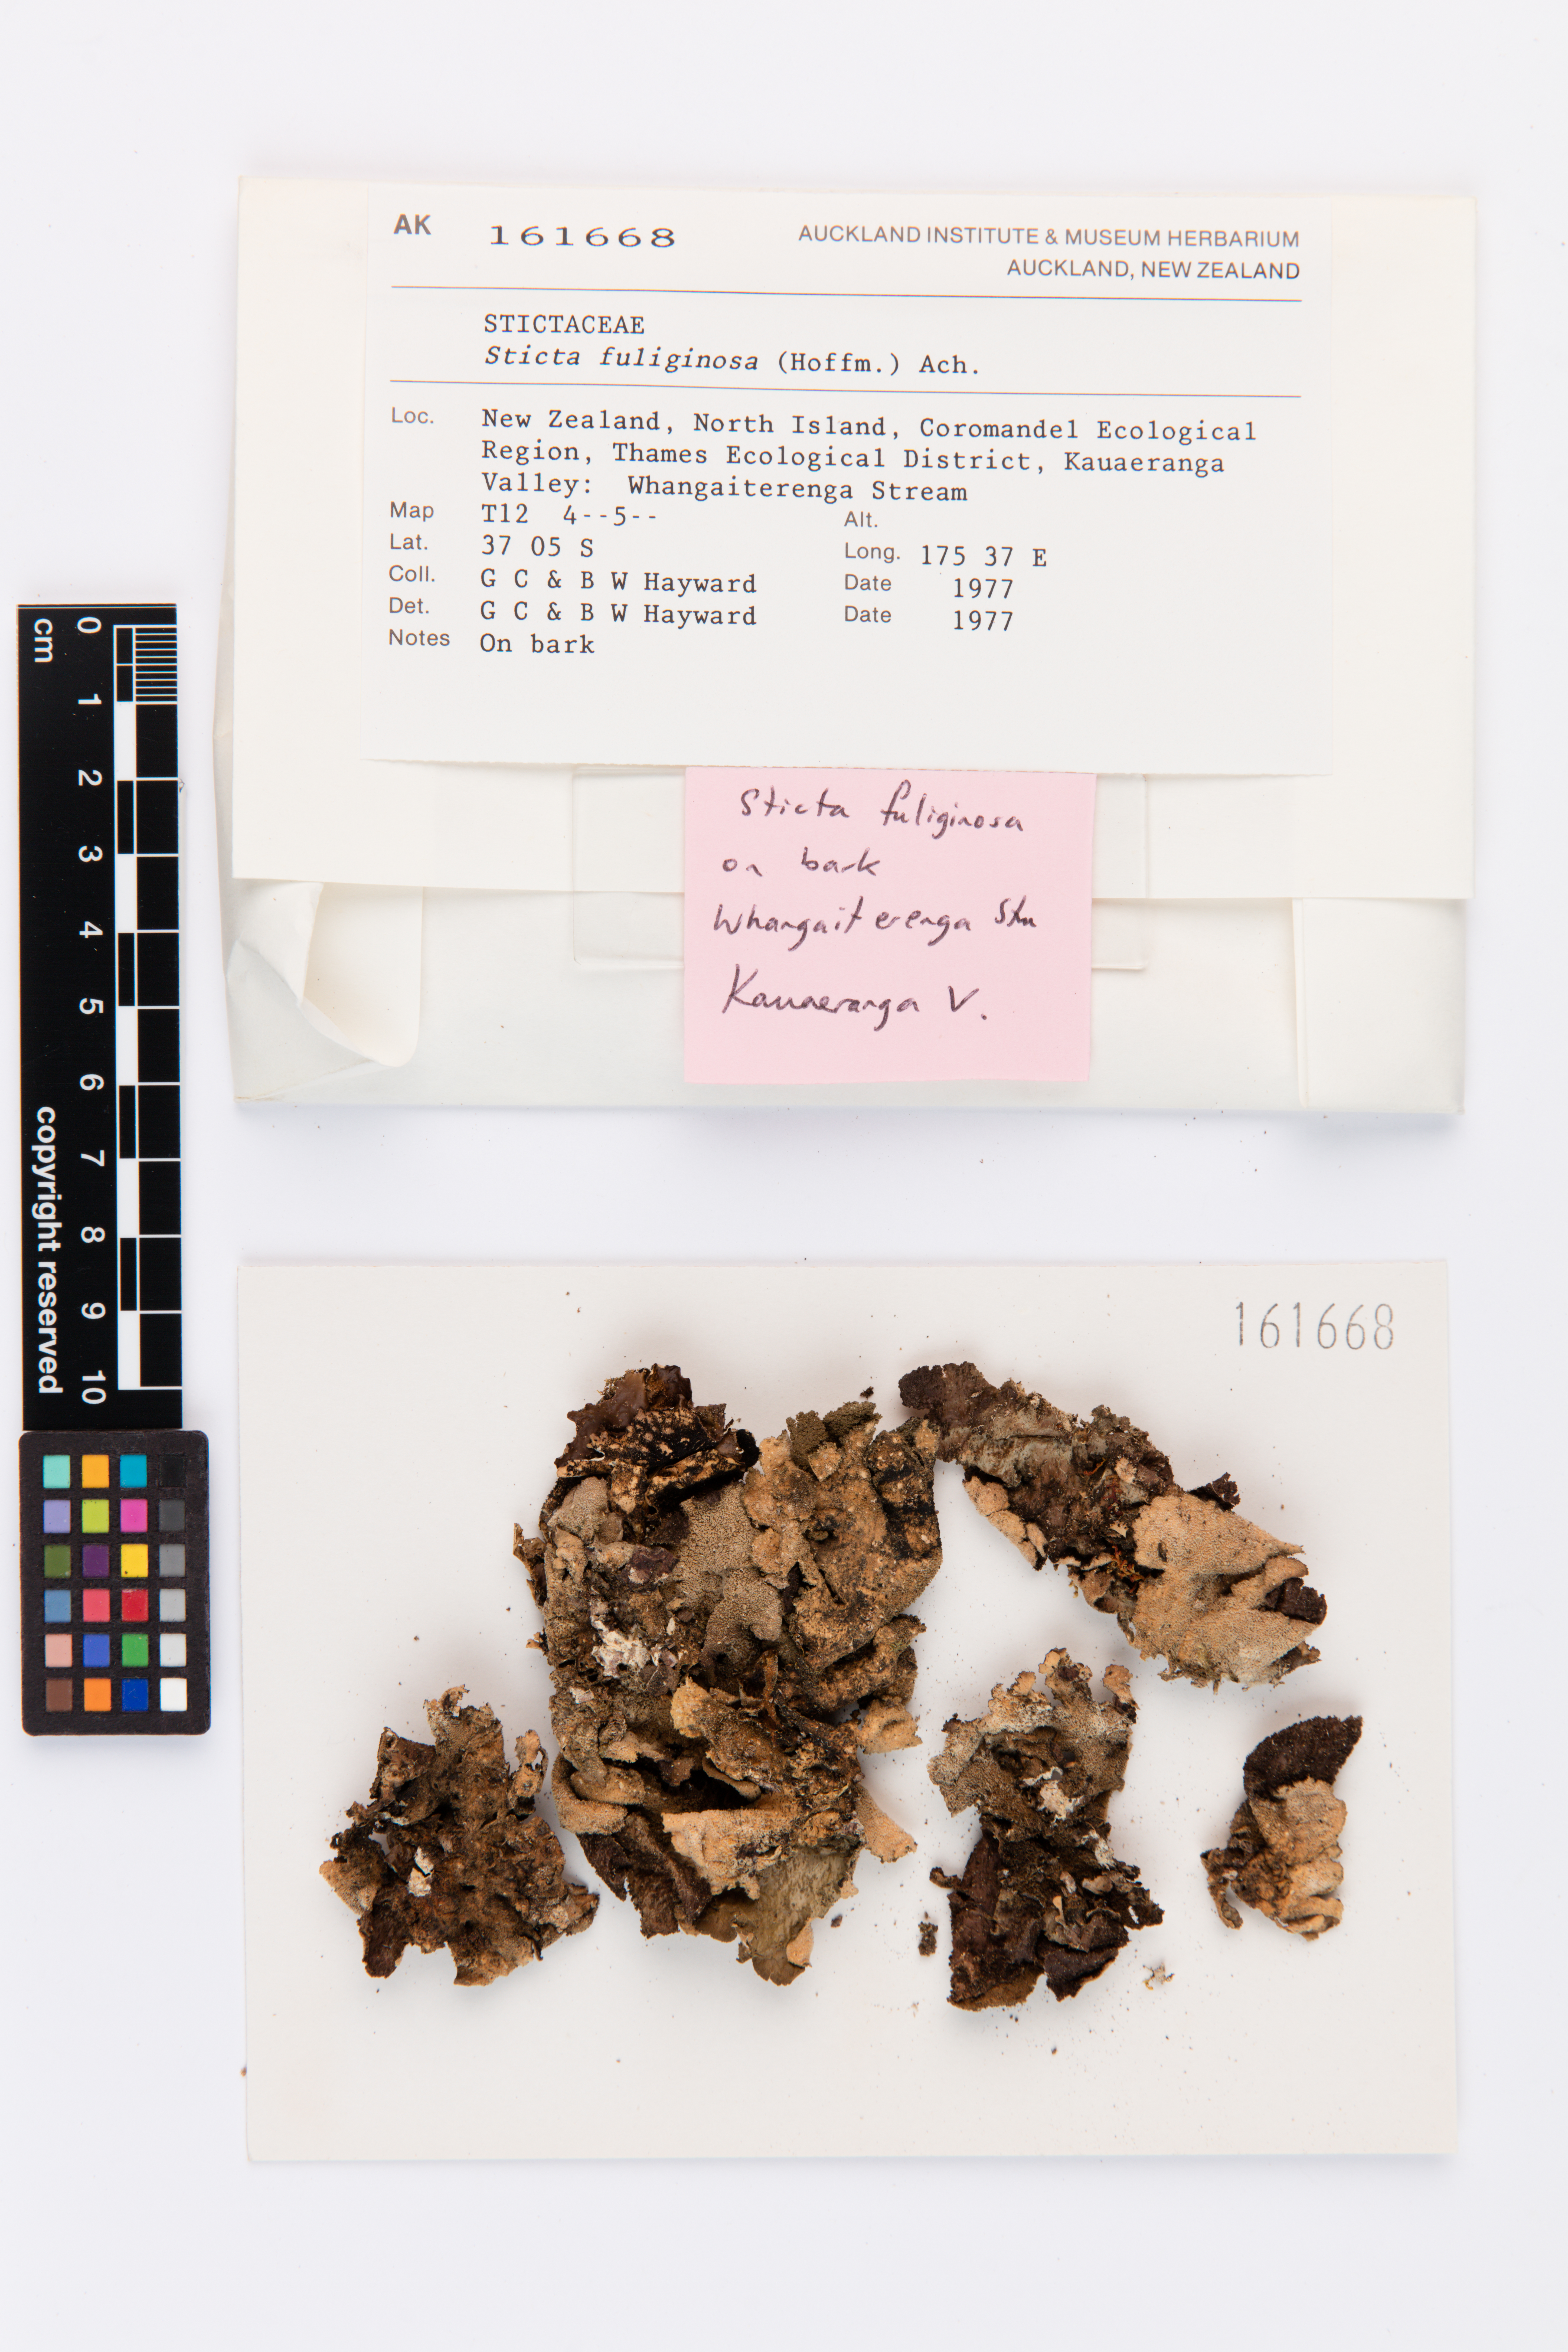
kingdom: Fungi
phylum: Ascomycota
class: Lecanoromycetes
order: Peltigerales
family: Lobariaceae
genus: Sticta
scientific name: Sticta fuliginosa
